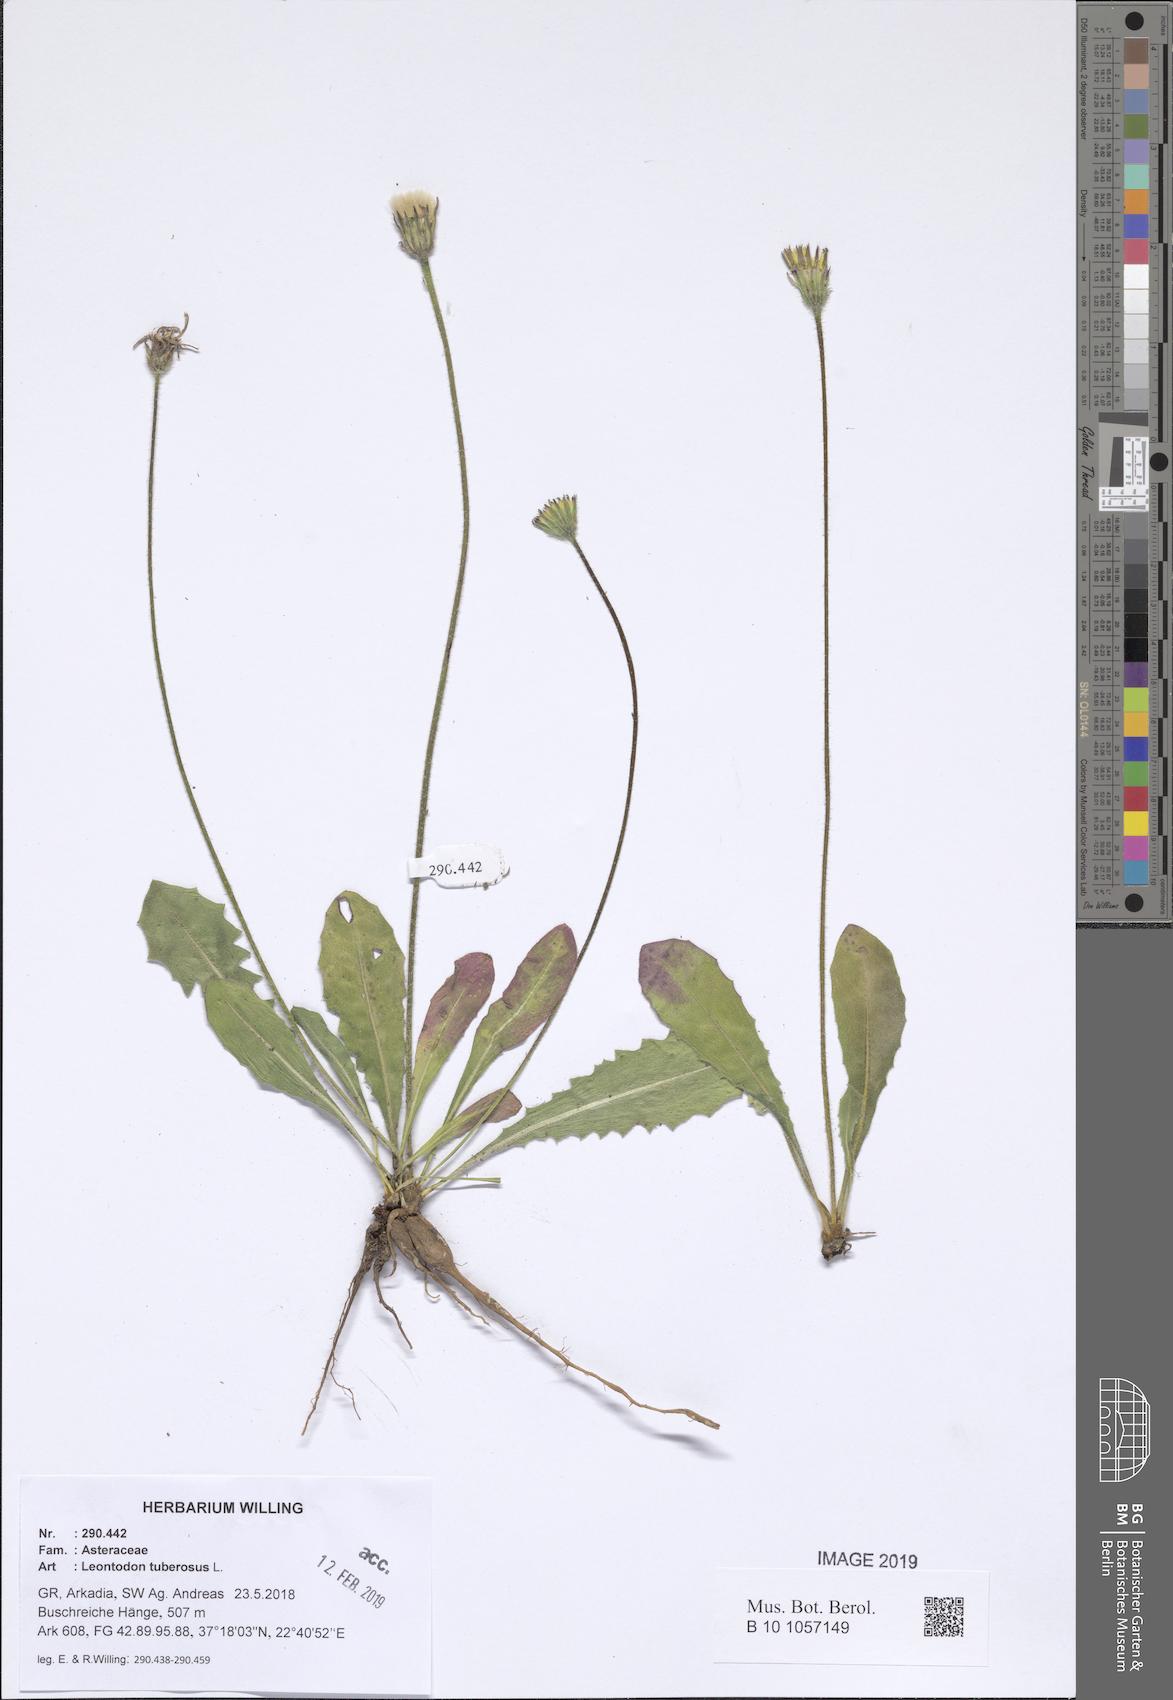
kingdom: Plantae
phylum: Tracheophyta
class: Magnoliopsida
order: Asterales
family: Asteraceae
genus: Thrincia
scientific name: Thrincia tuberosa
